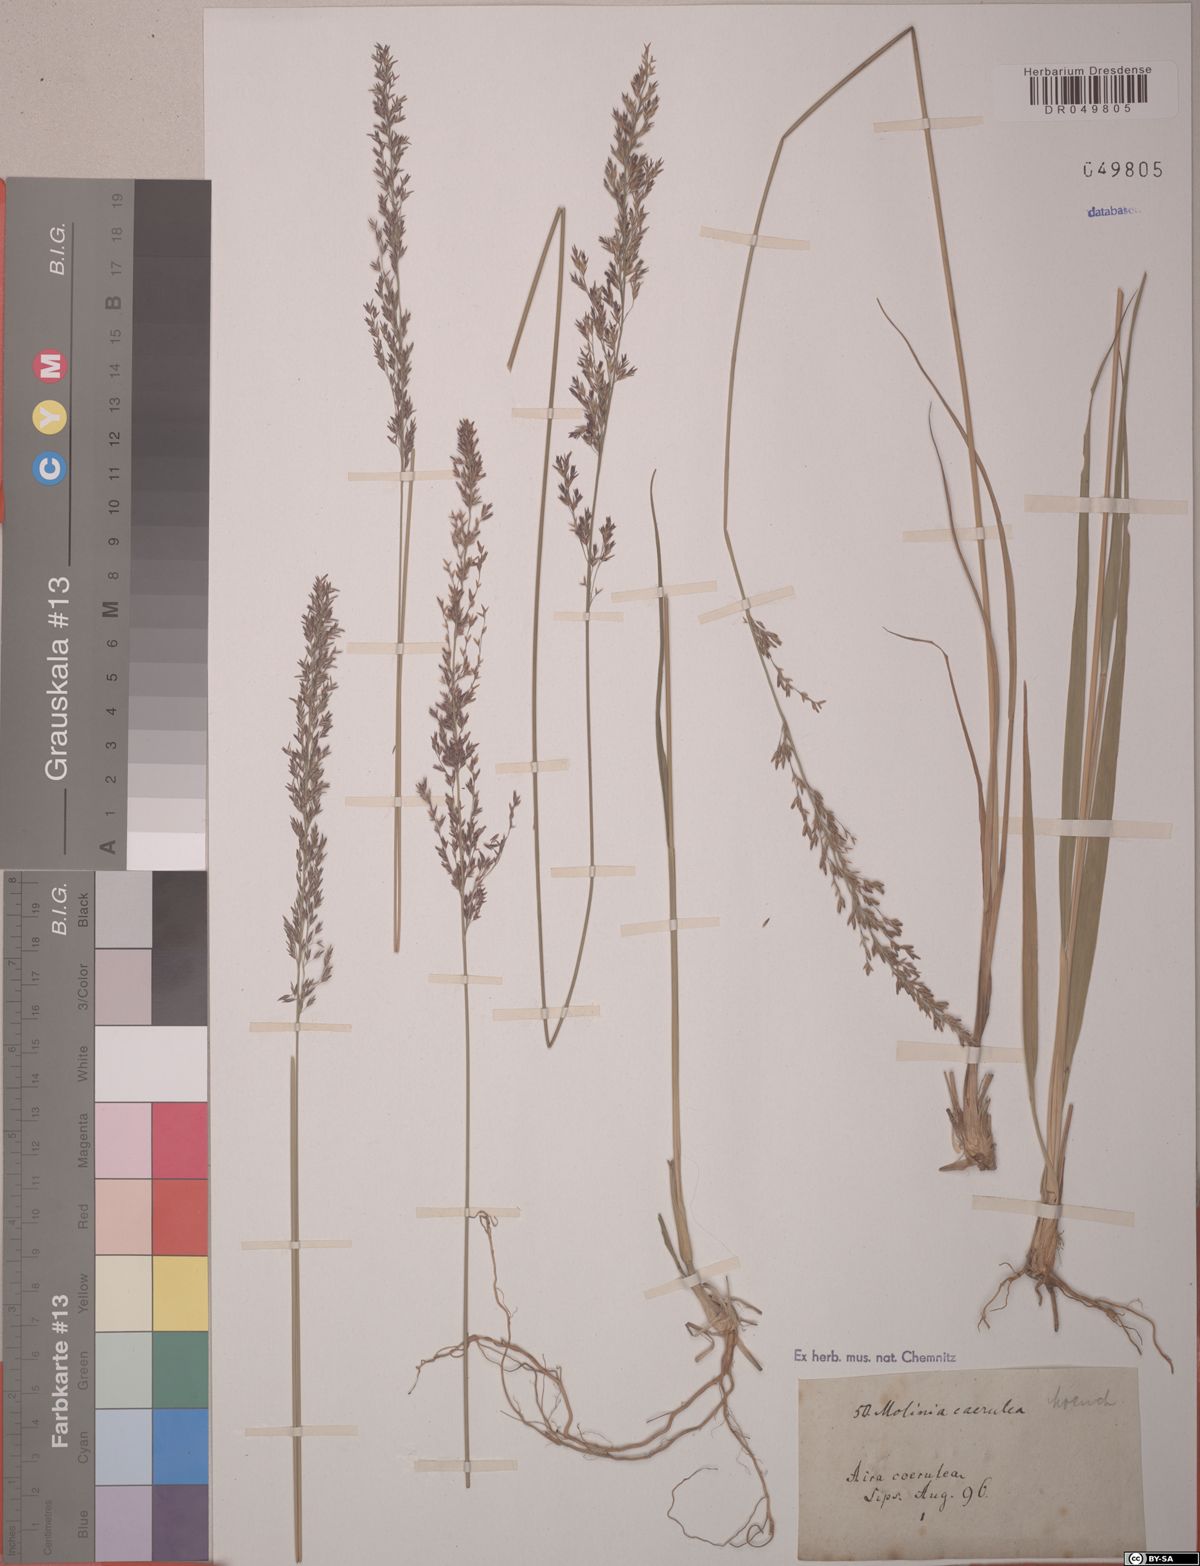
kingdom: Plantae
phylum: Tracheophyta
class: Liliopsida
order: Poales
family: Poaceae
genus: Molinia
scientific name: Molinia caerulea
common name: Purple moor-grass
